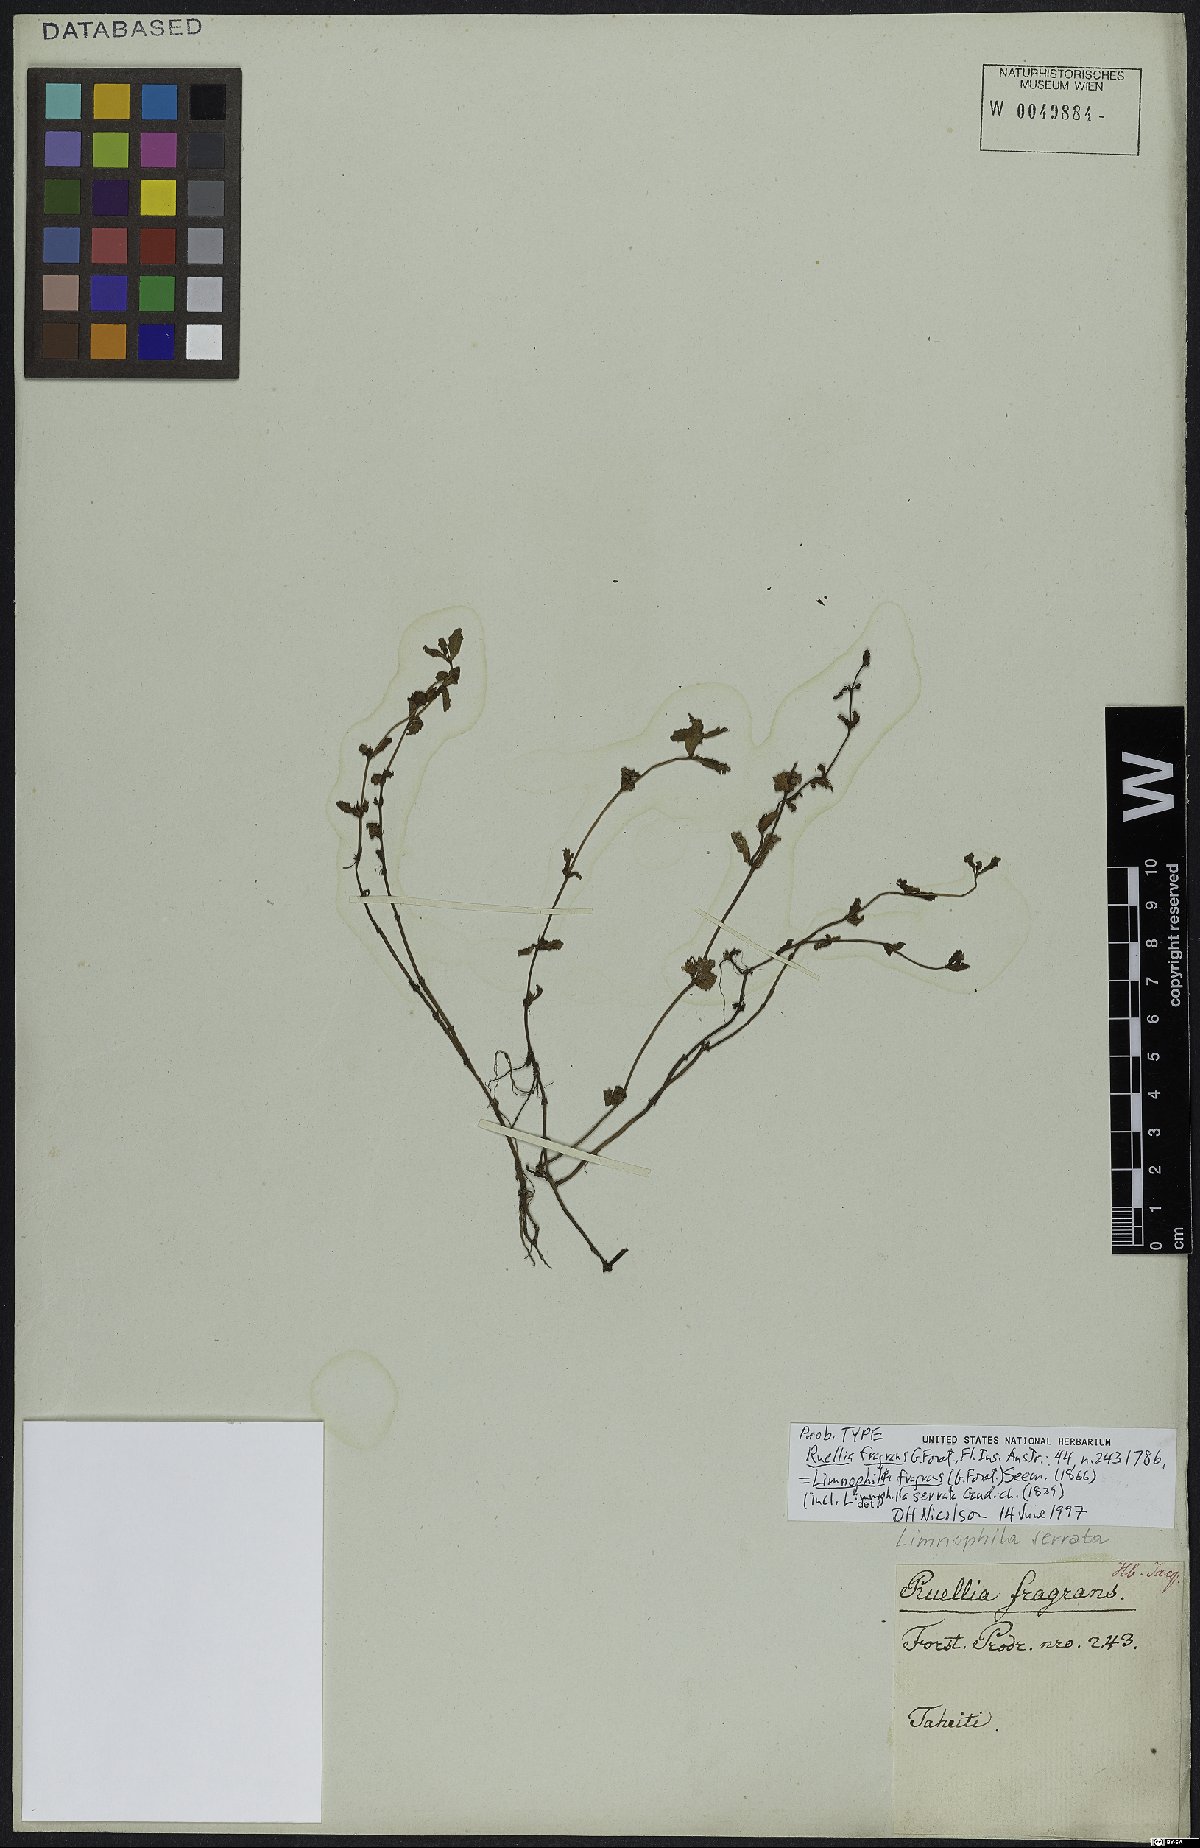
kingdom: Plantae
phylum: Tracheophyta
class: Magnoliopsida
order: Lamiales
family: Plantaginaceae
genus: Limnophila
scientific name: Limnophila fragrans
